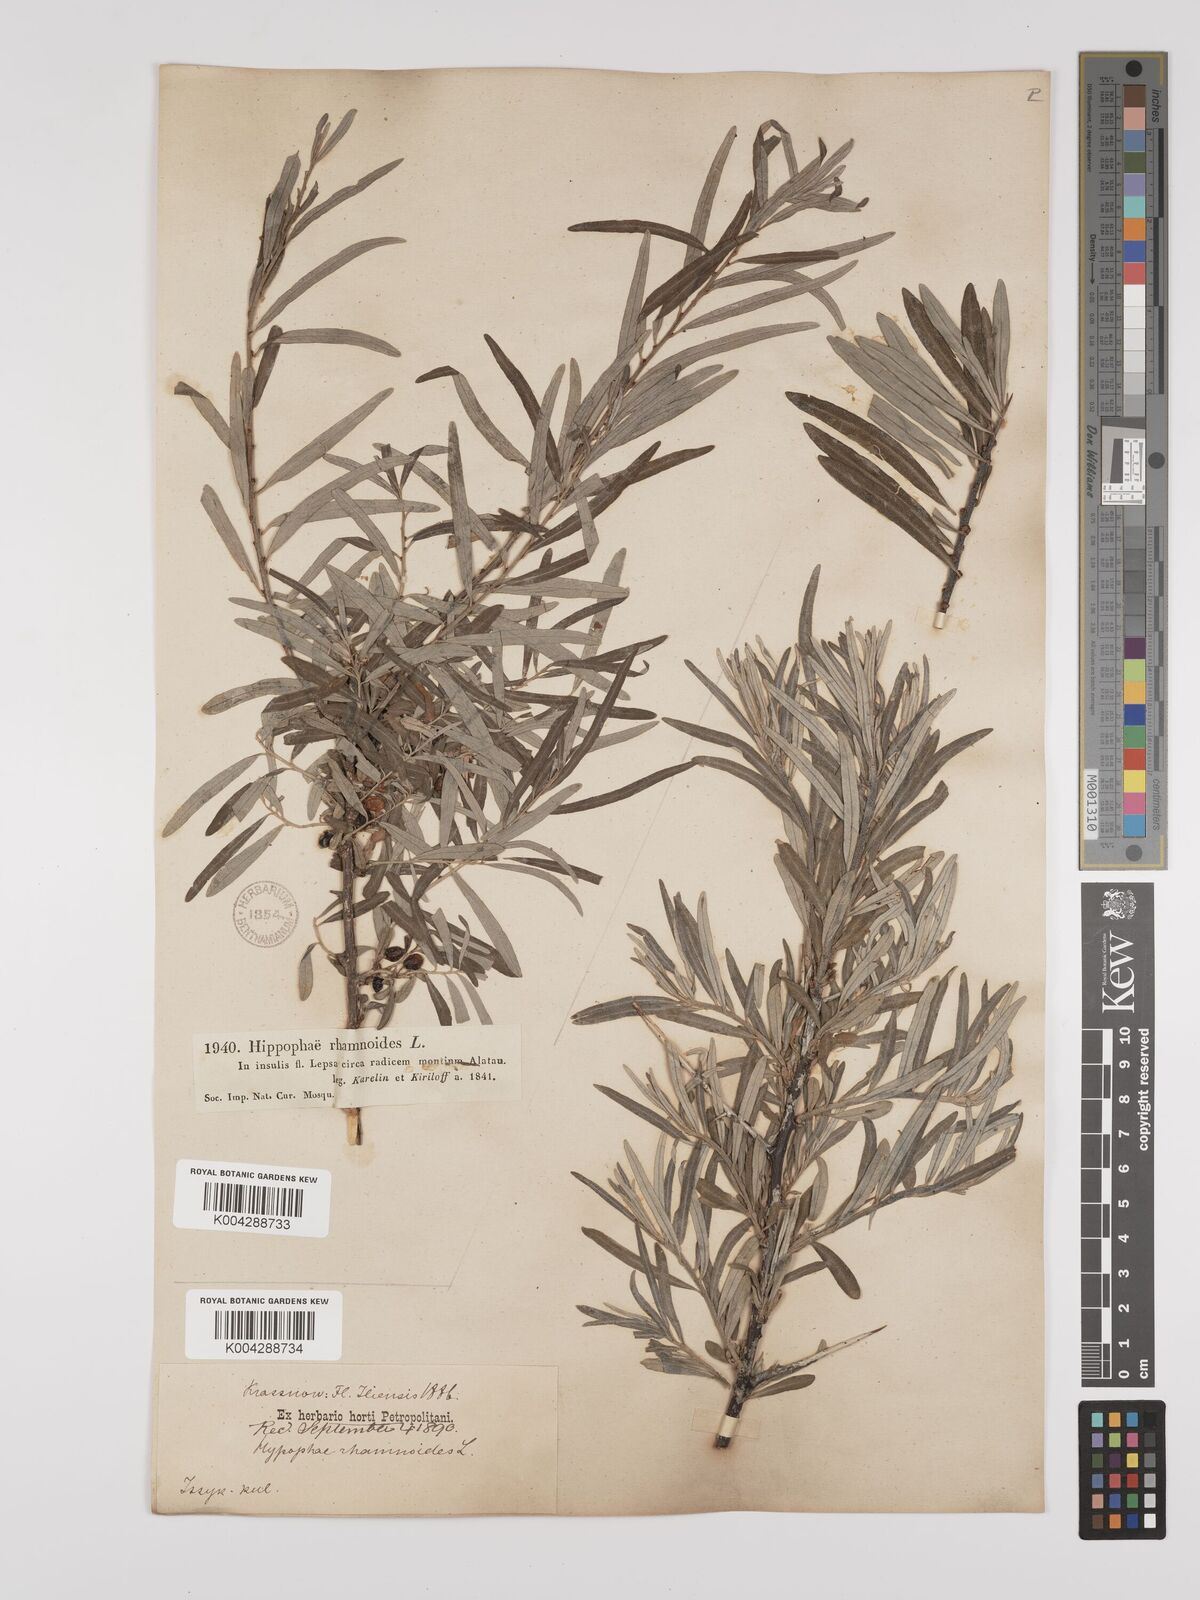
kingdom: Plantae
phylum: Tracheophyta
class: Magnoliopsida
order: Rosales
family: Elaeagnaceae
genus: Hippophae
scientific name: Hippophae rhamnoides
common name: Sea-buckthorn
